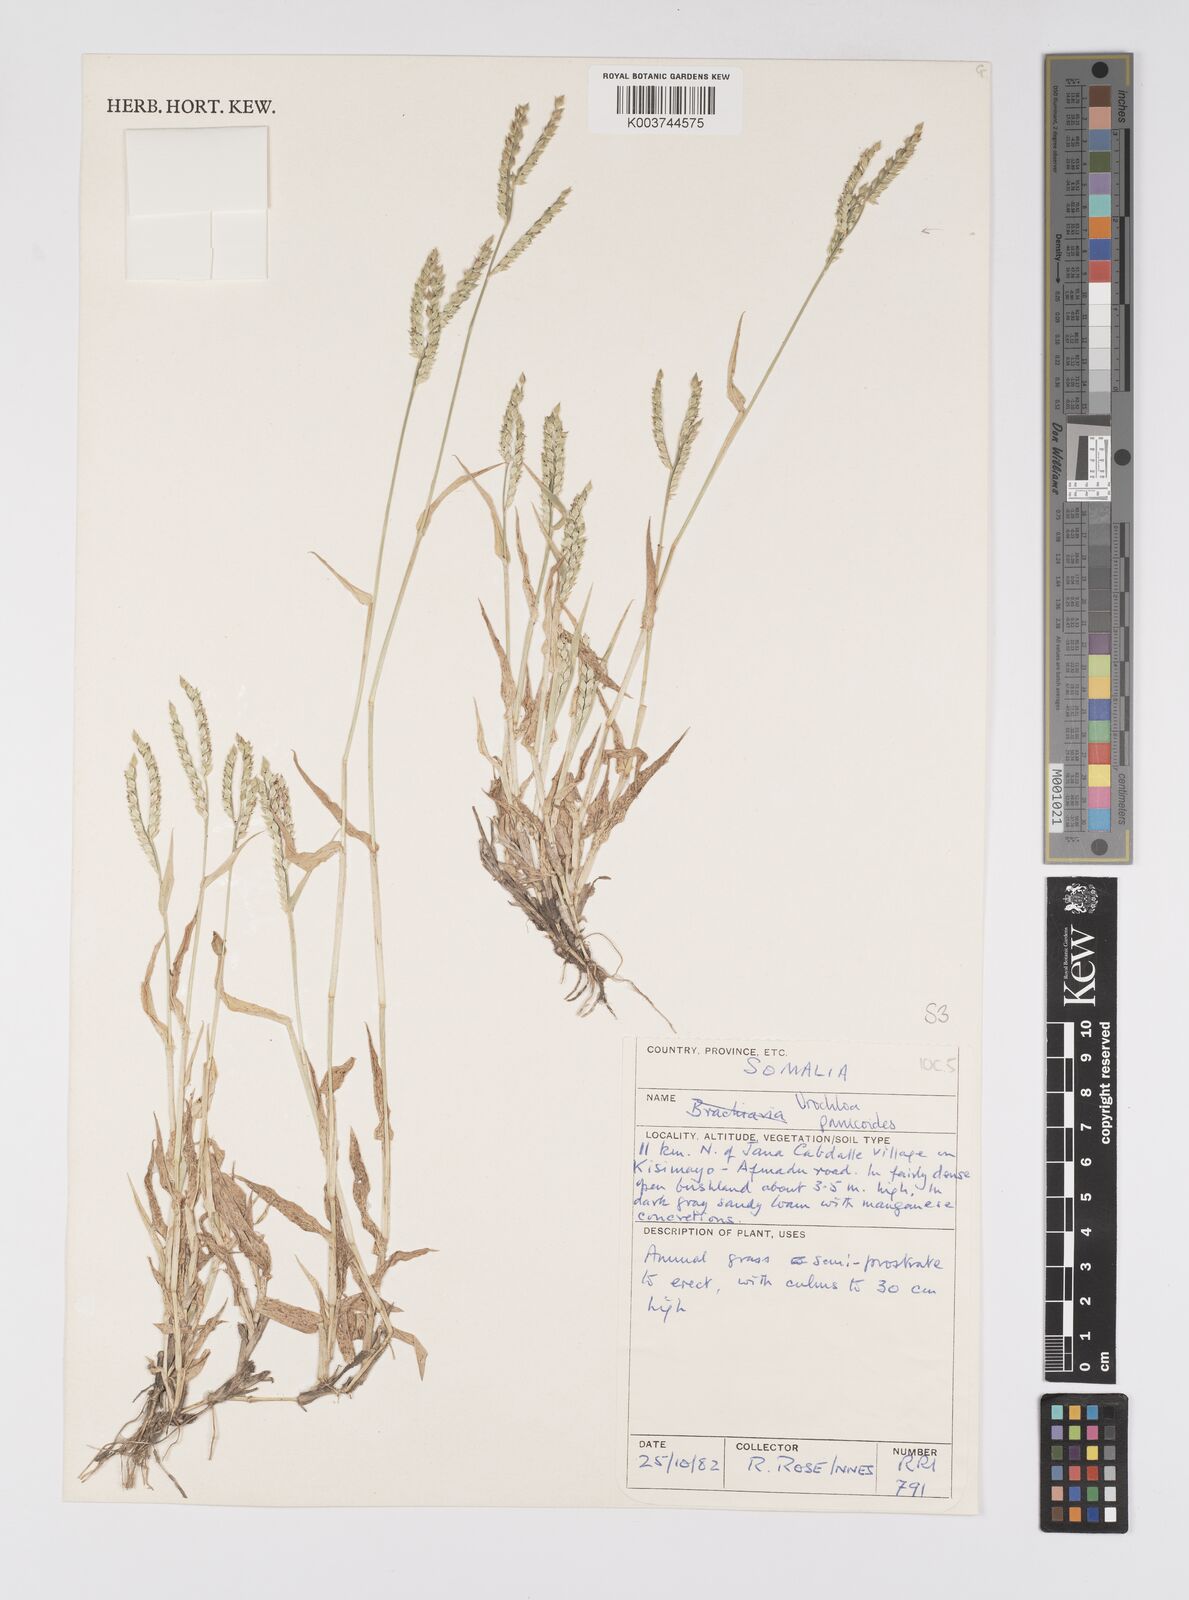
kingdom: Plantae
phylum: Tracheophyta
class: Liliopsida
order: Poales
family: Poaceae
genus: Urochloa
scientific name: Urochloa panicoides
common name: Sharp-flowered signal-grass
